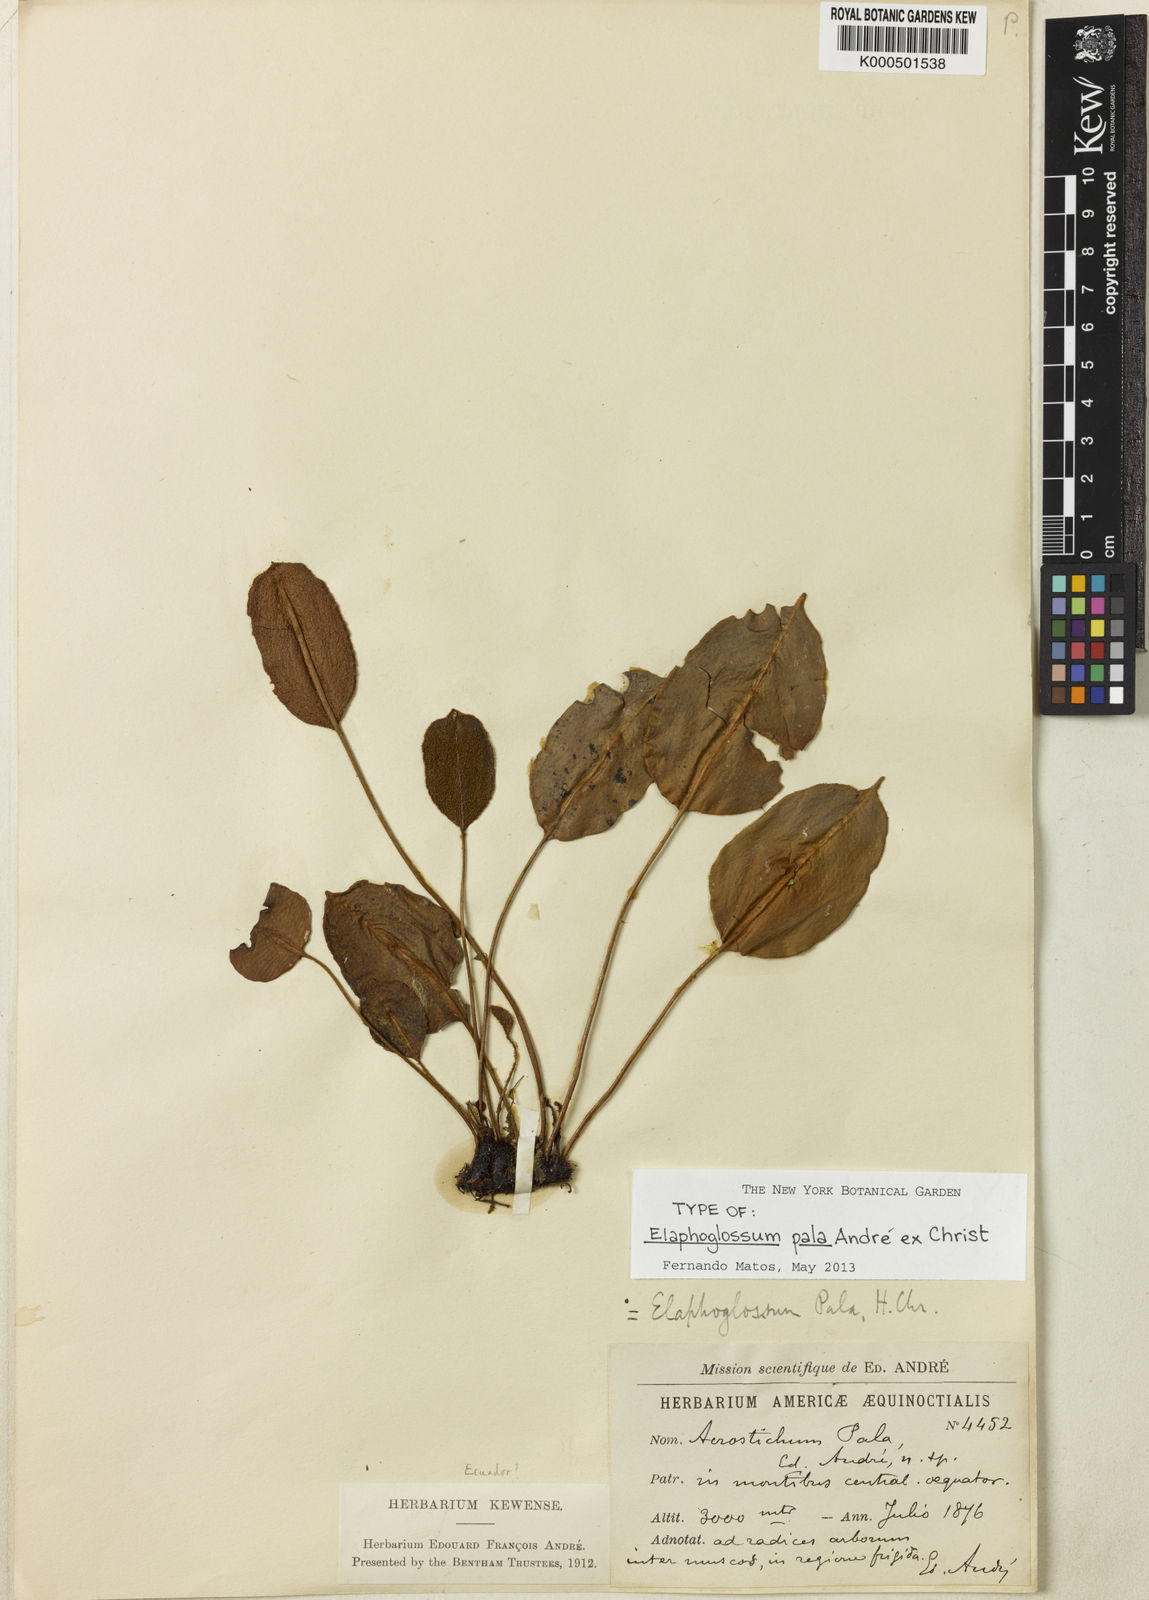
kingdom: Plantae
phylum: Tracheophyta
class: Polypodiopsida
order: Polypodiales
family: Dryopteridaceae
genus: Elaphoglossum
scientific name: Elaphoglossum
